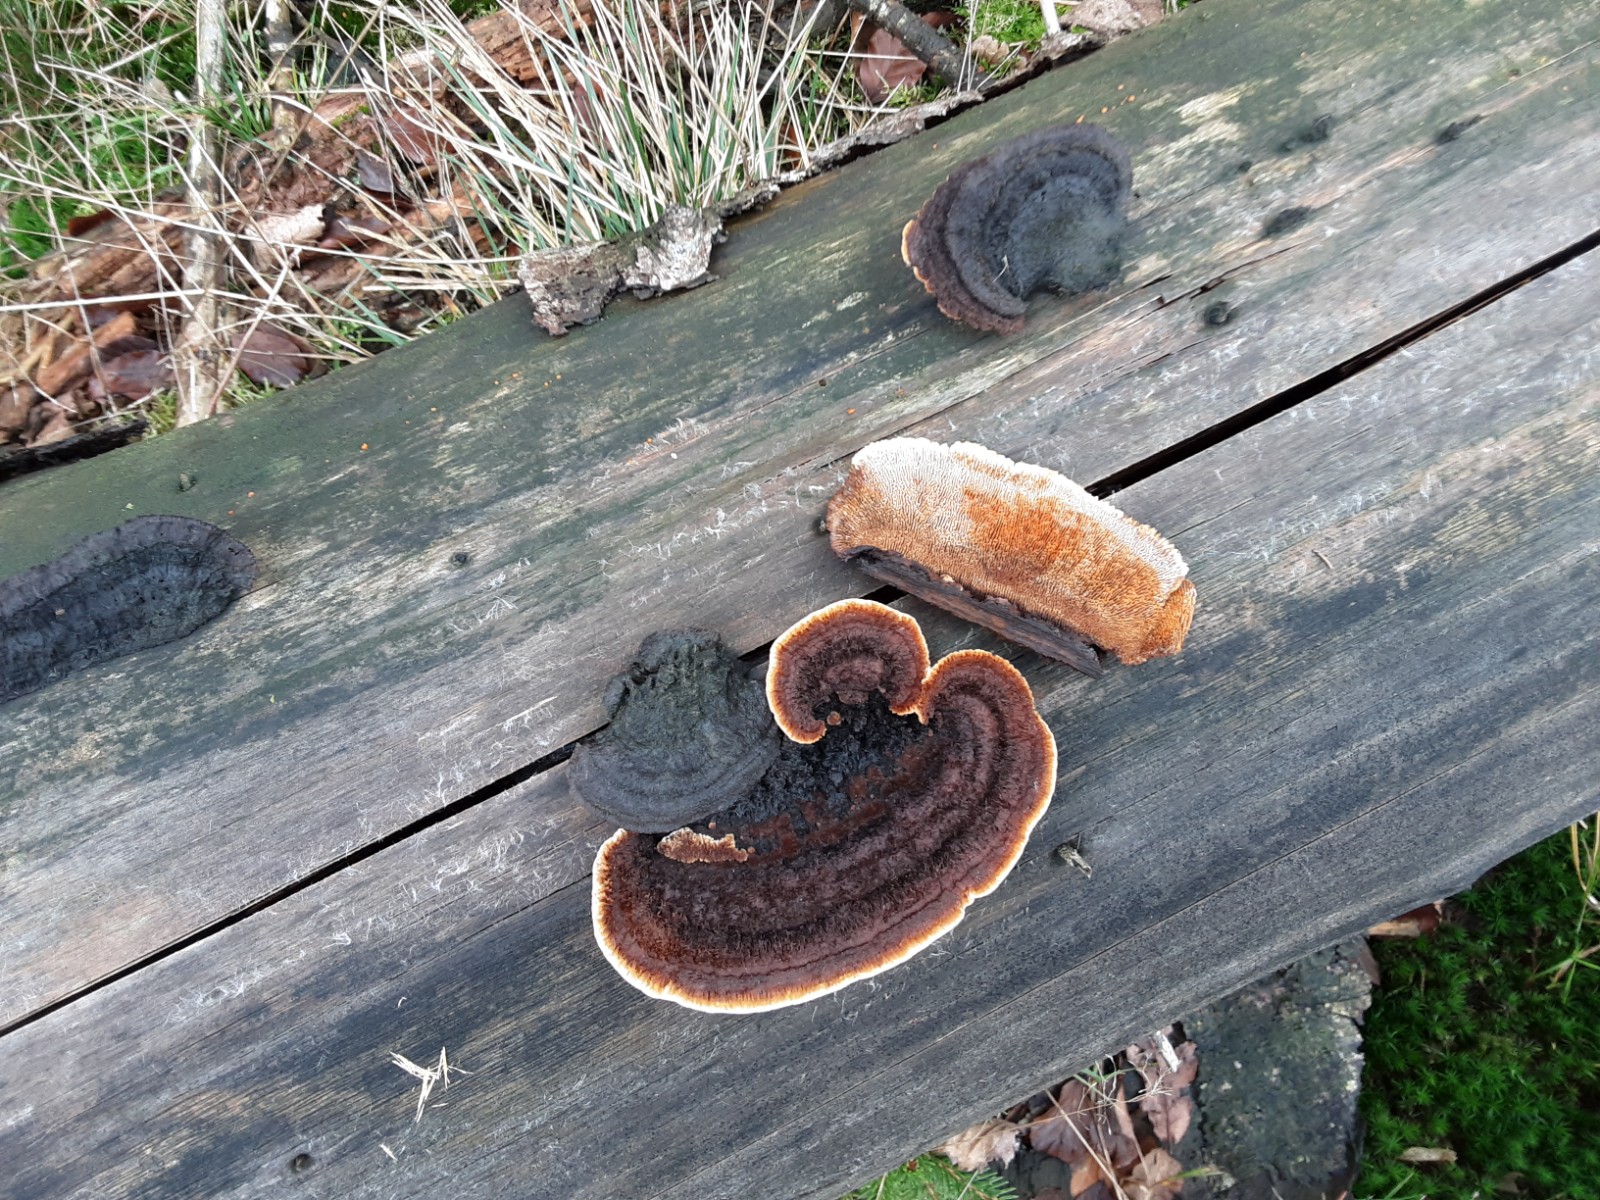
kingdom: Fungi
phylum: Basidiomycota
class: Agaricomycetes
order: Gloeophyllales
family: Gloeophyllaceae
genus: Gloeophyllum
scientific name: Gloeophyllum sepiarium
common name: fyrre-korkhat
